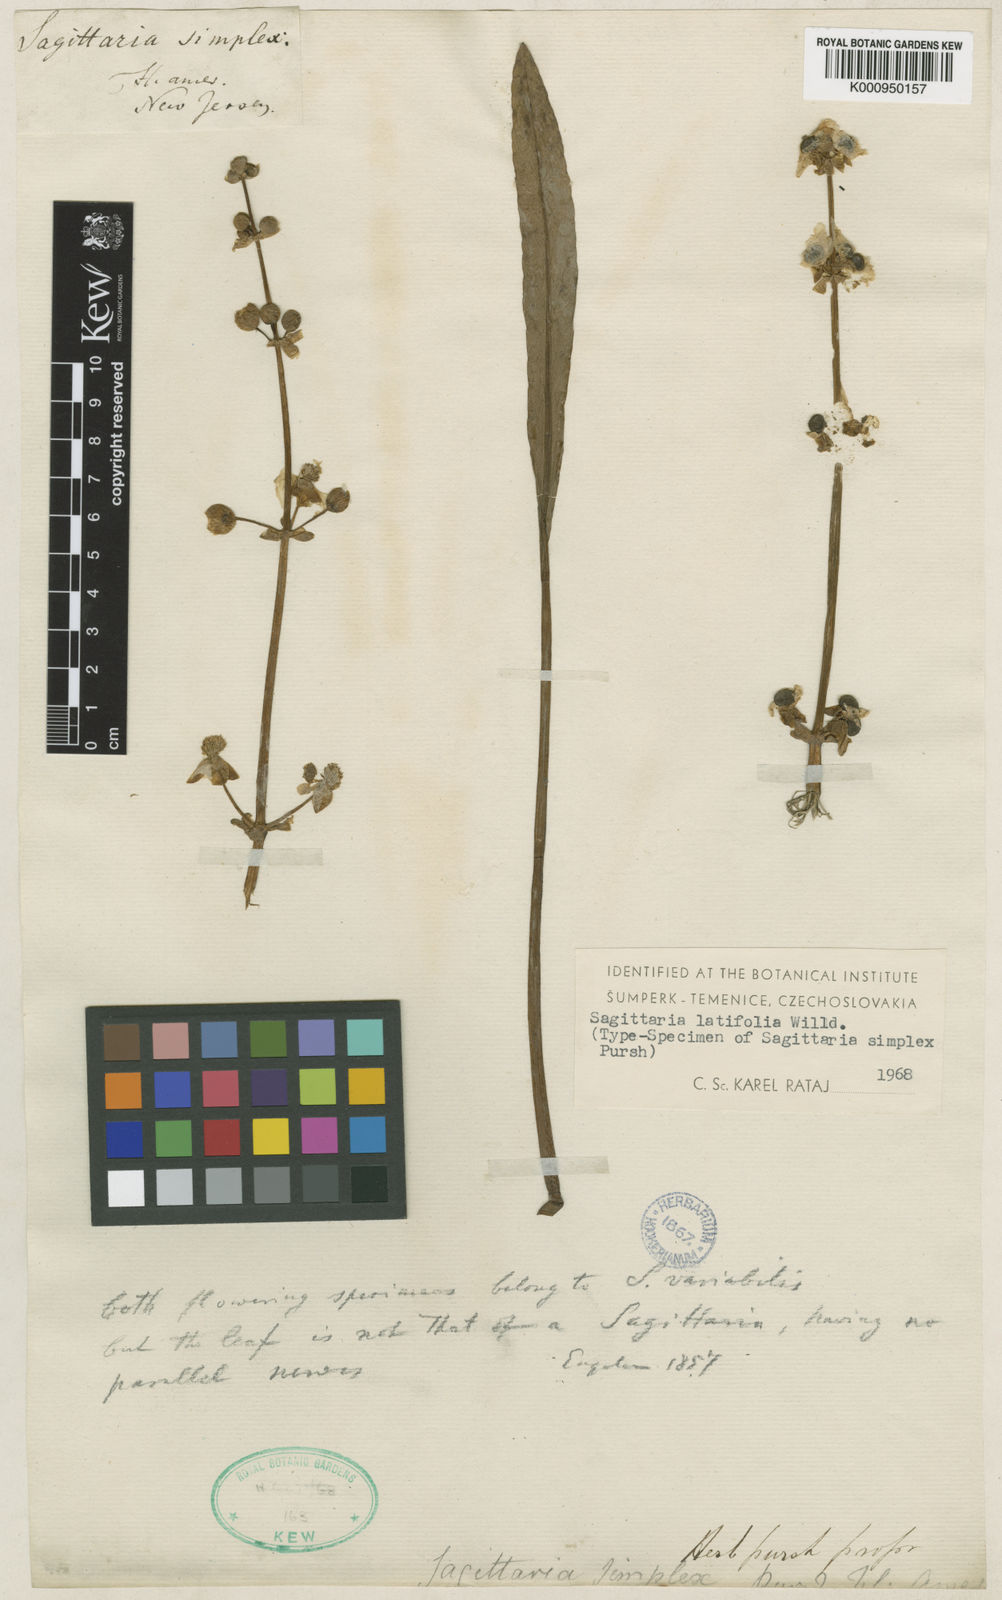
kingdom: Plantae
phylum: Tracheophyta
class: Liliopsida
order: Alismatales
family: Alismataceae
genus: Sagittaria
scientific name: Sagittaria latifolia
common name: Duck-potato
